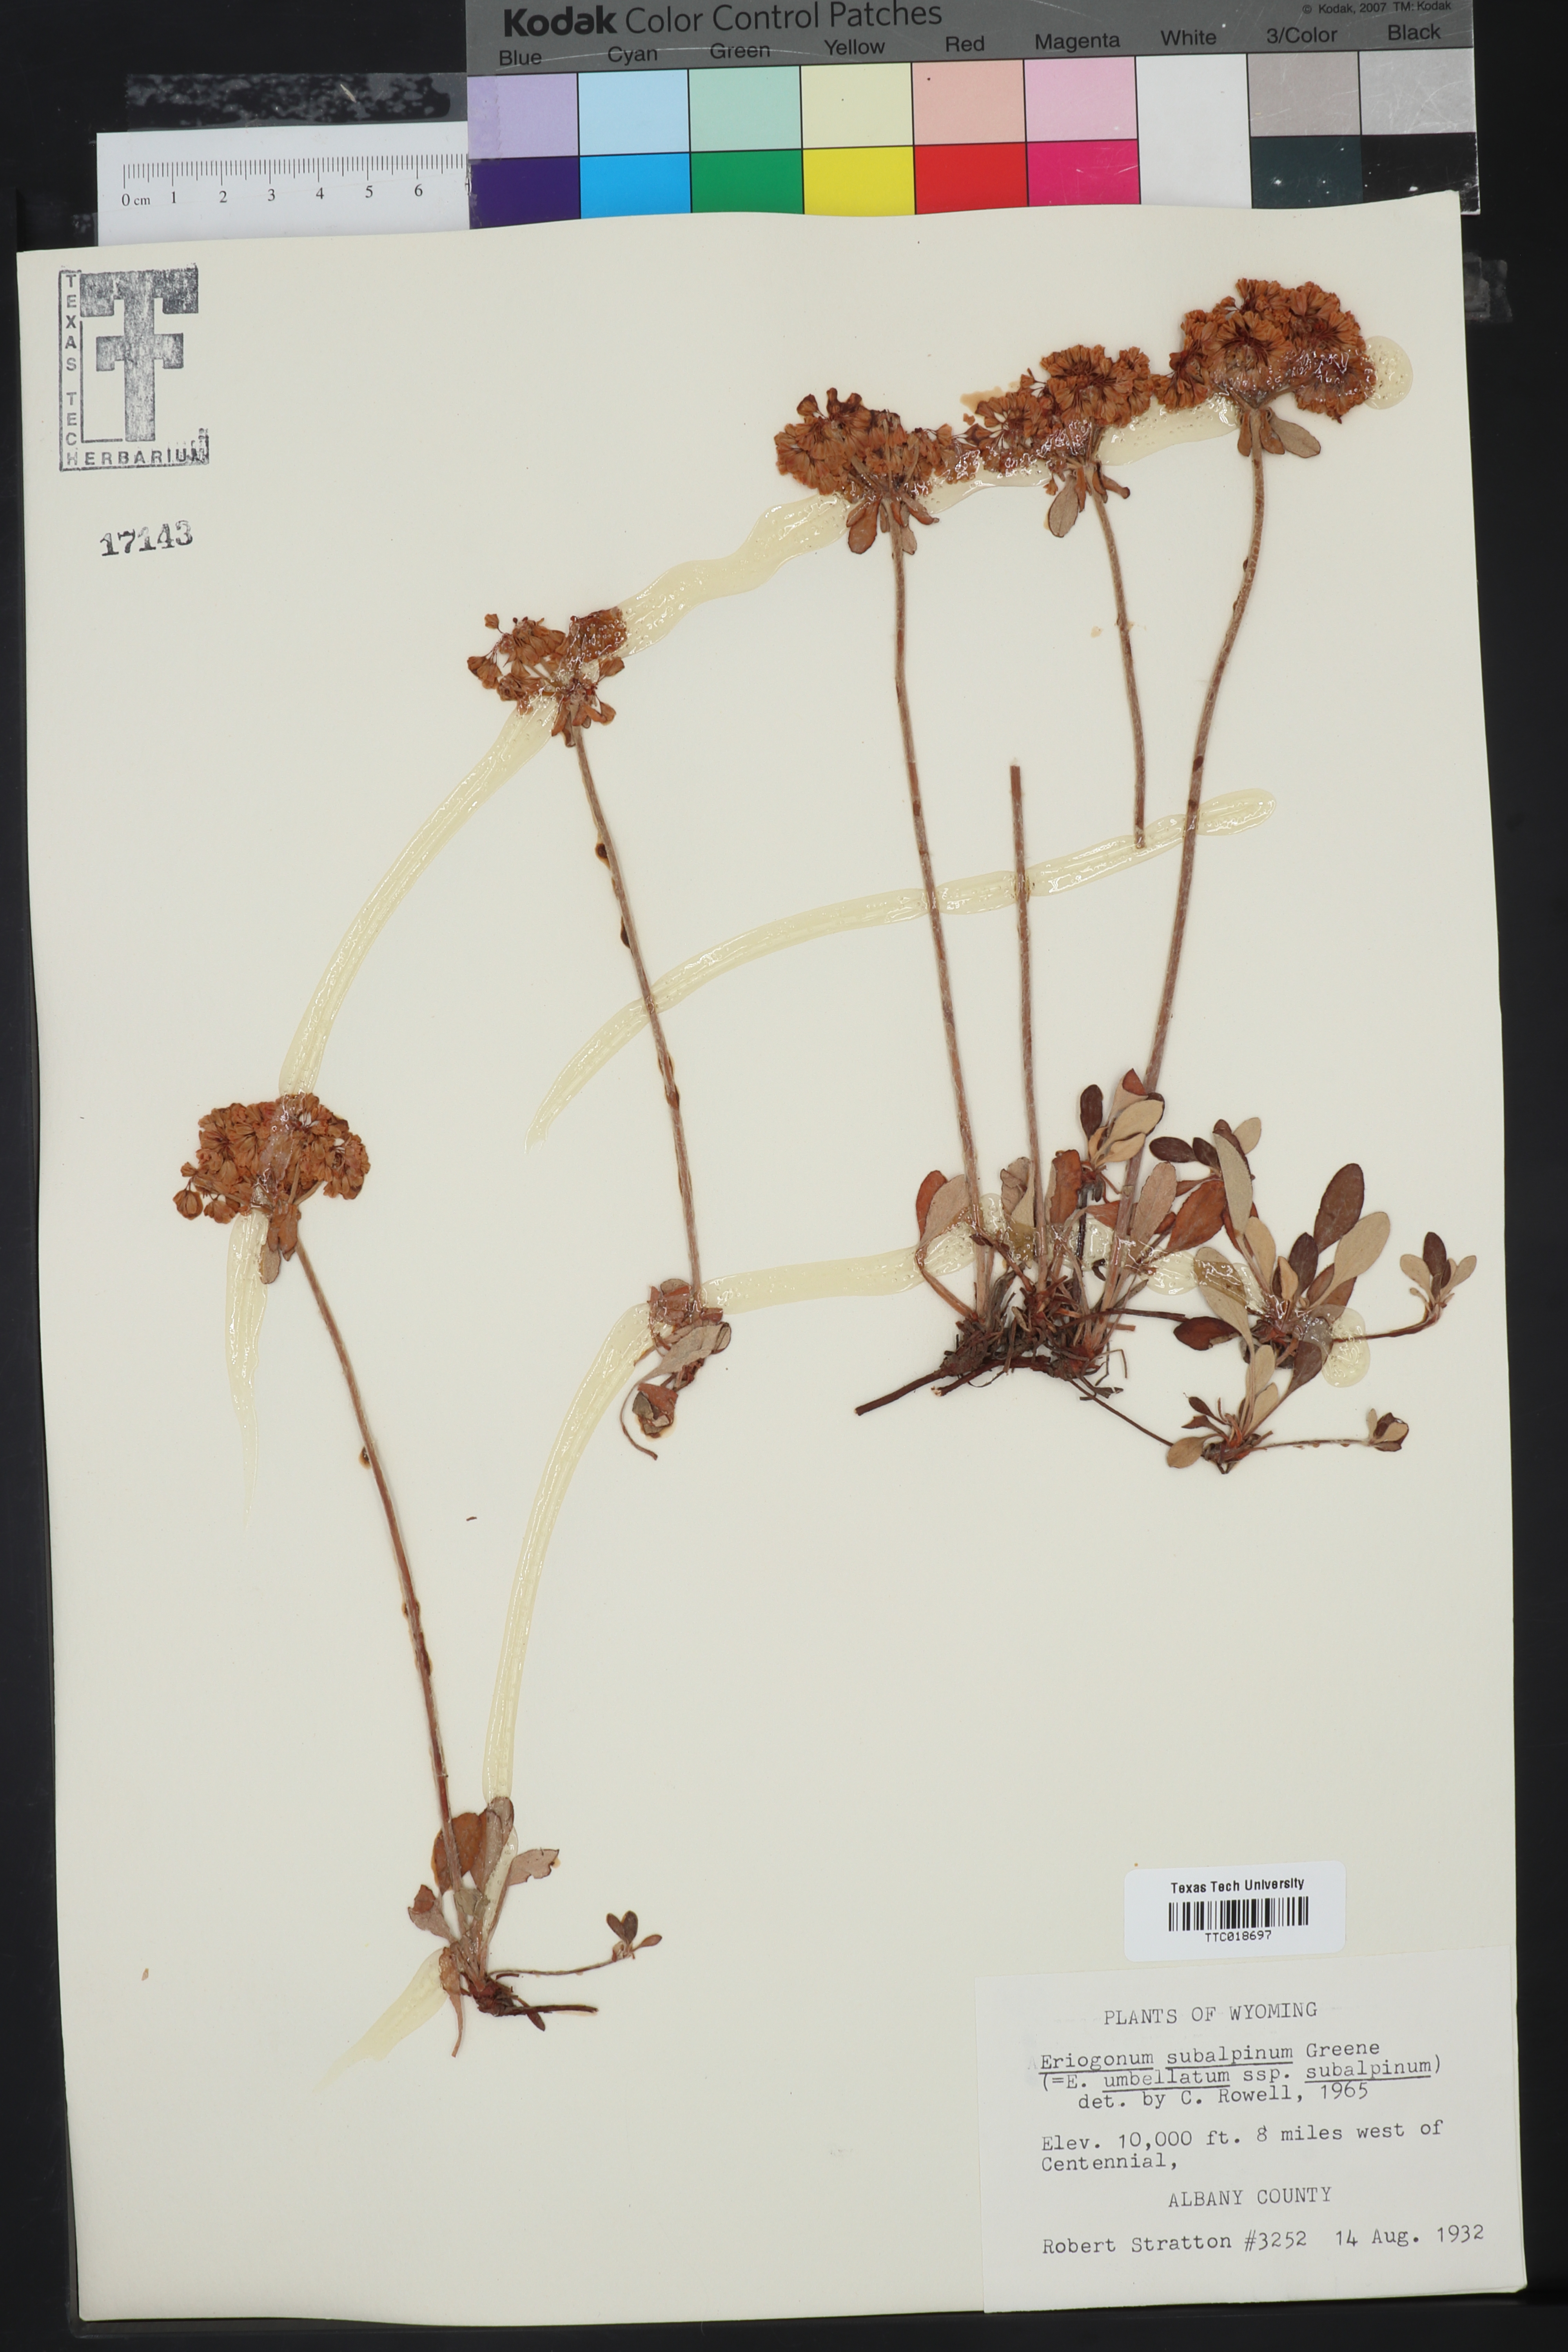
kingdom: Plantae
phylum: Tracheophyta
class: Magnoliopsida
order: Caryophyllales
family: Polygonaceae
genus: Eriogonum
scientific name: Eriogonum umbellatum
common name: Sulfur-buckwheat
